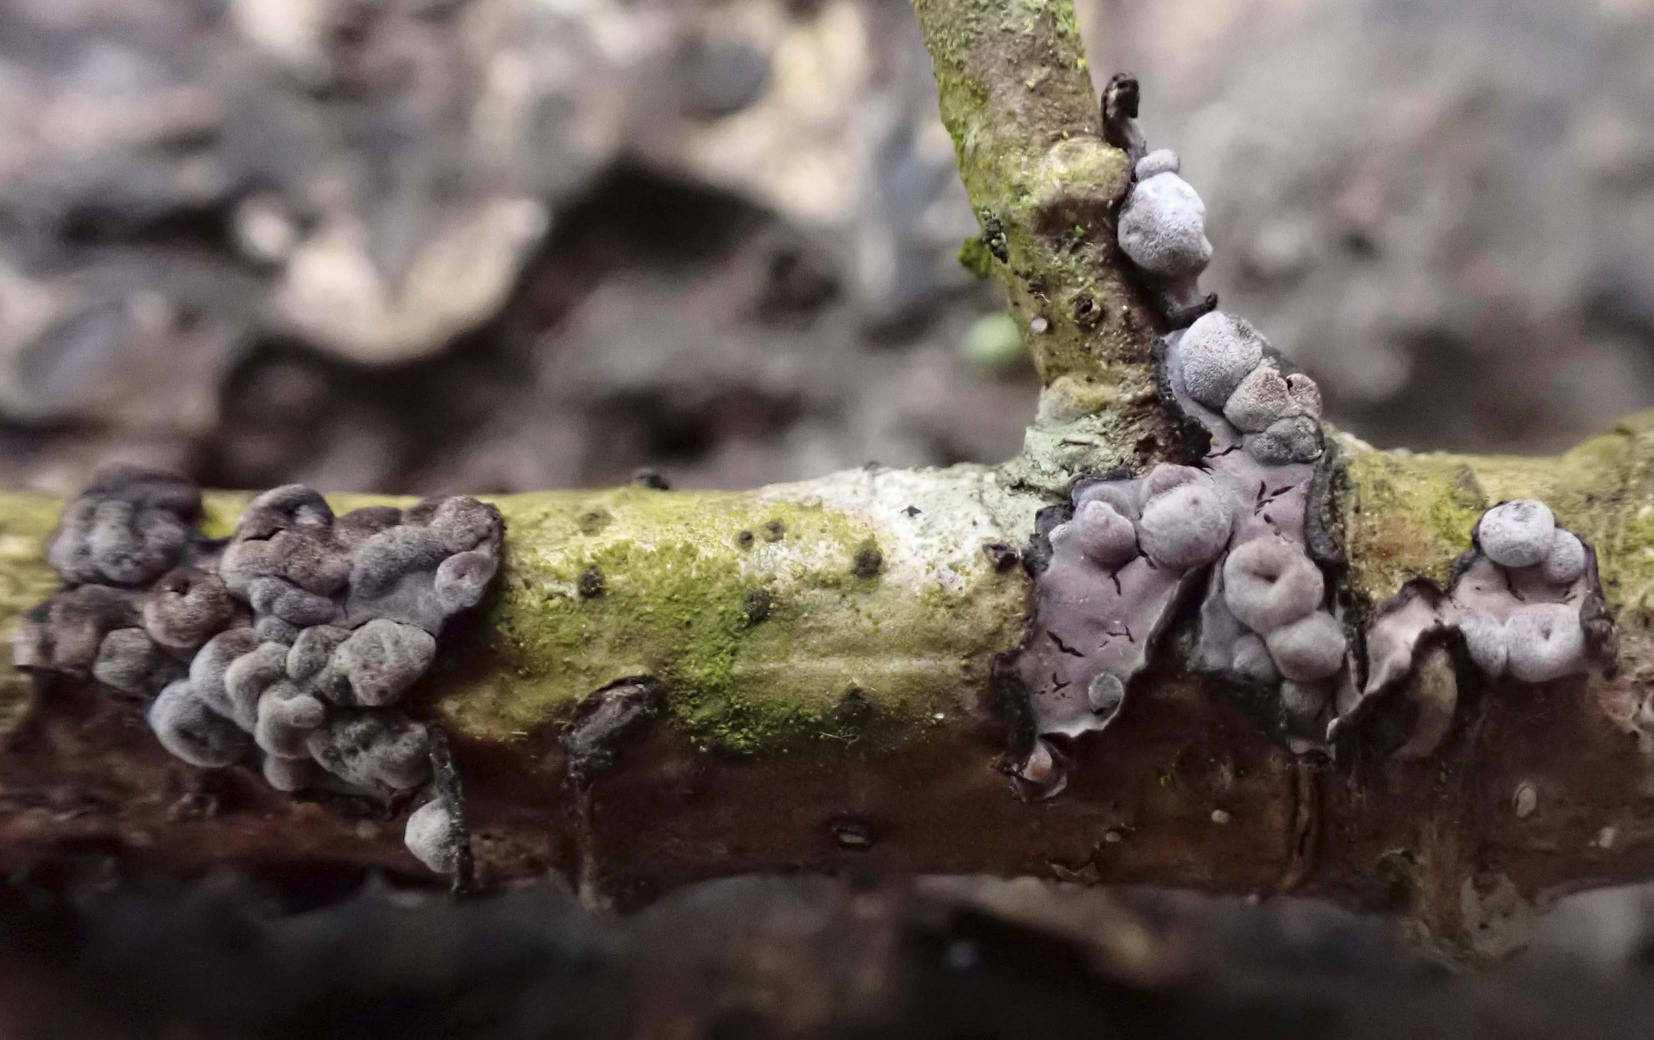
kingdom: Fungi
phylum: Basidiomycota
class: Pucciniomycetes
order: Platygloeales
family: Platygloeaceae
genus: Platygloea
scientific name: Platygloea
